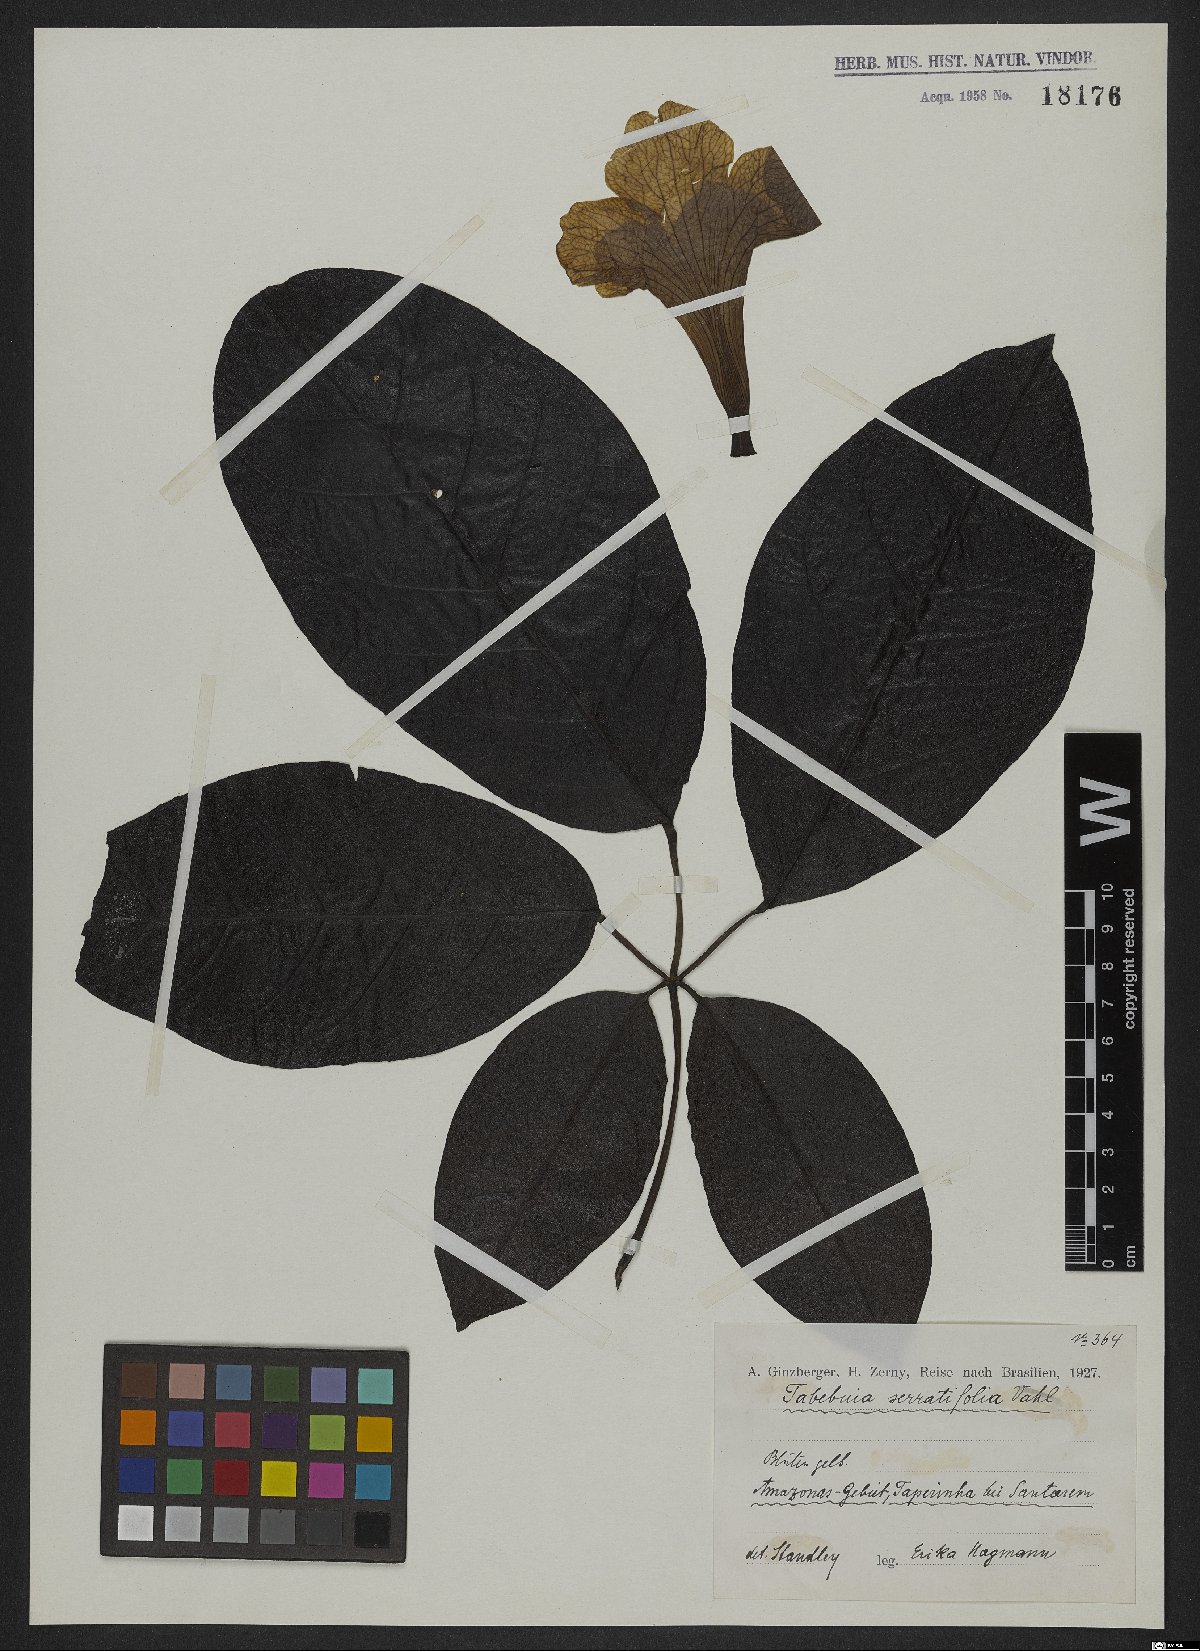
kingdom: Plantae
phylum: Tracheophyta
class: Magnoliopsida
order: Lamiales
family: Bignoniaceae
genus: Handroanthus
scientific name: Handroanthus serratifolius
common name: Yellow ipe
